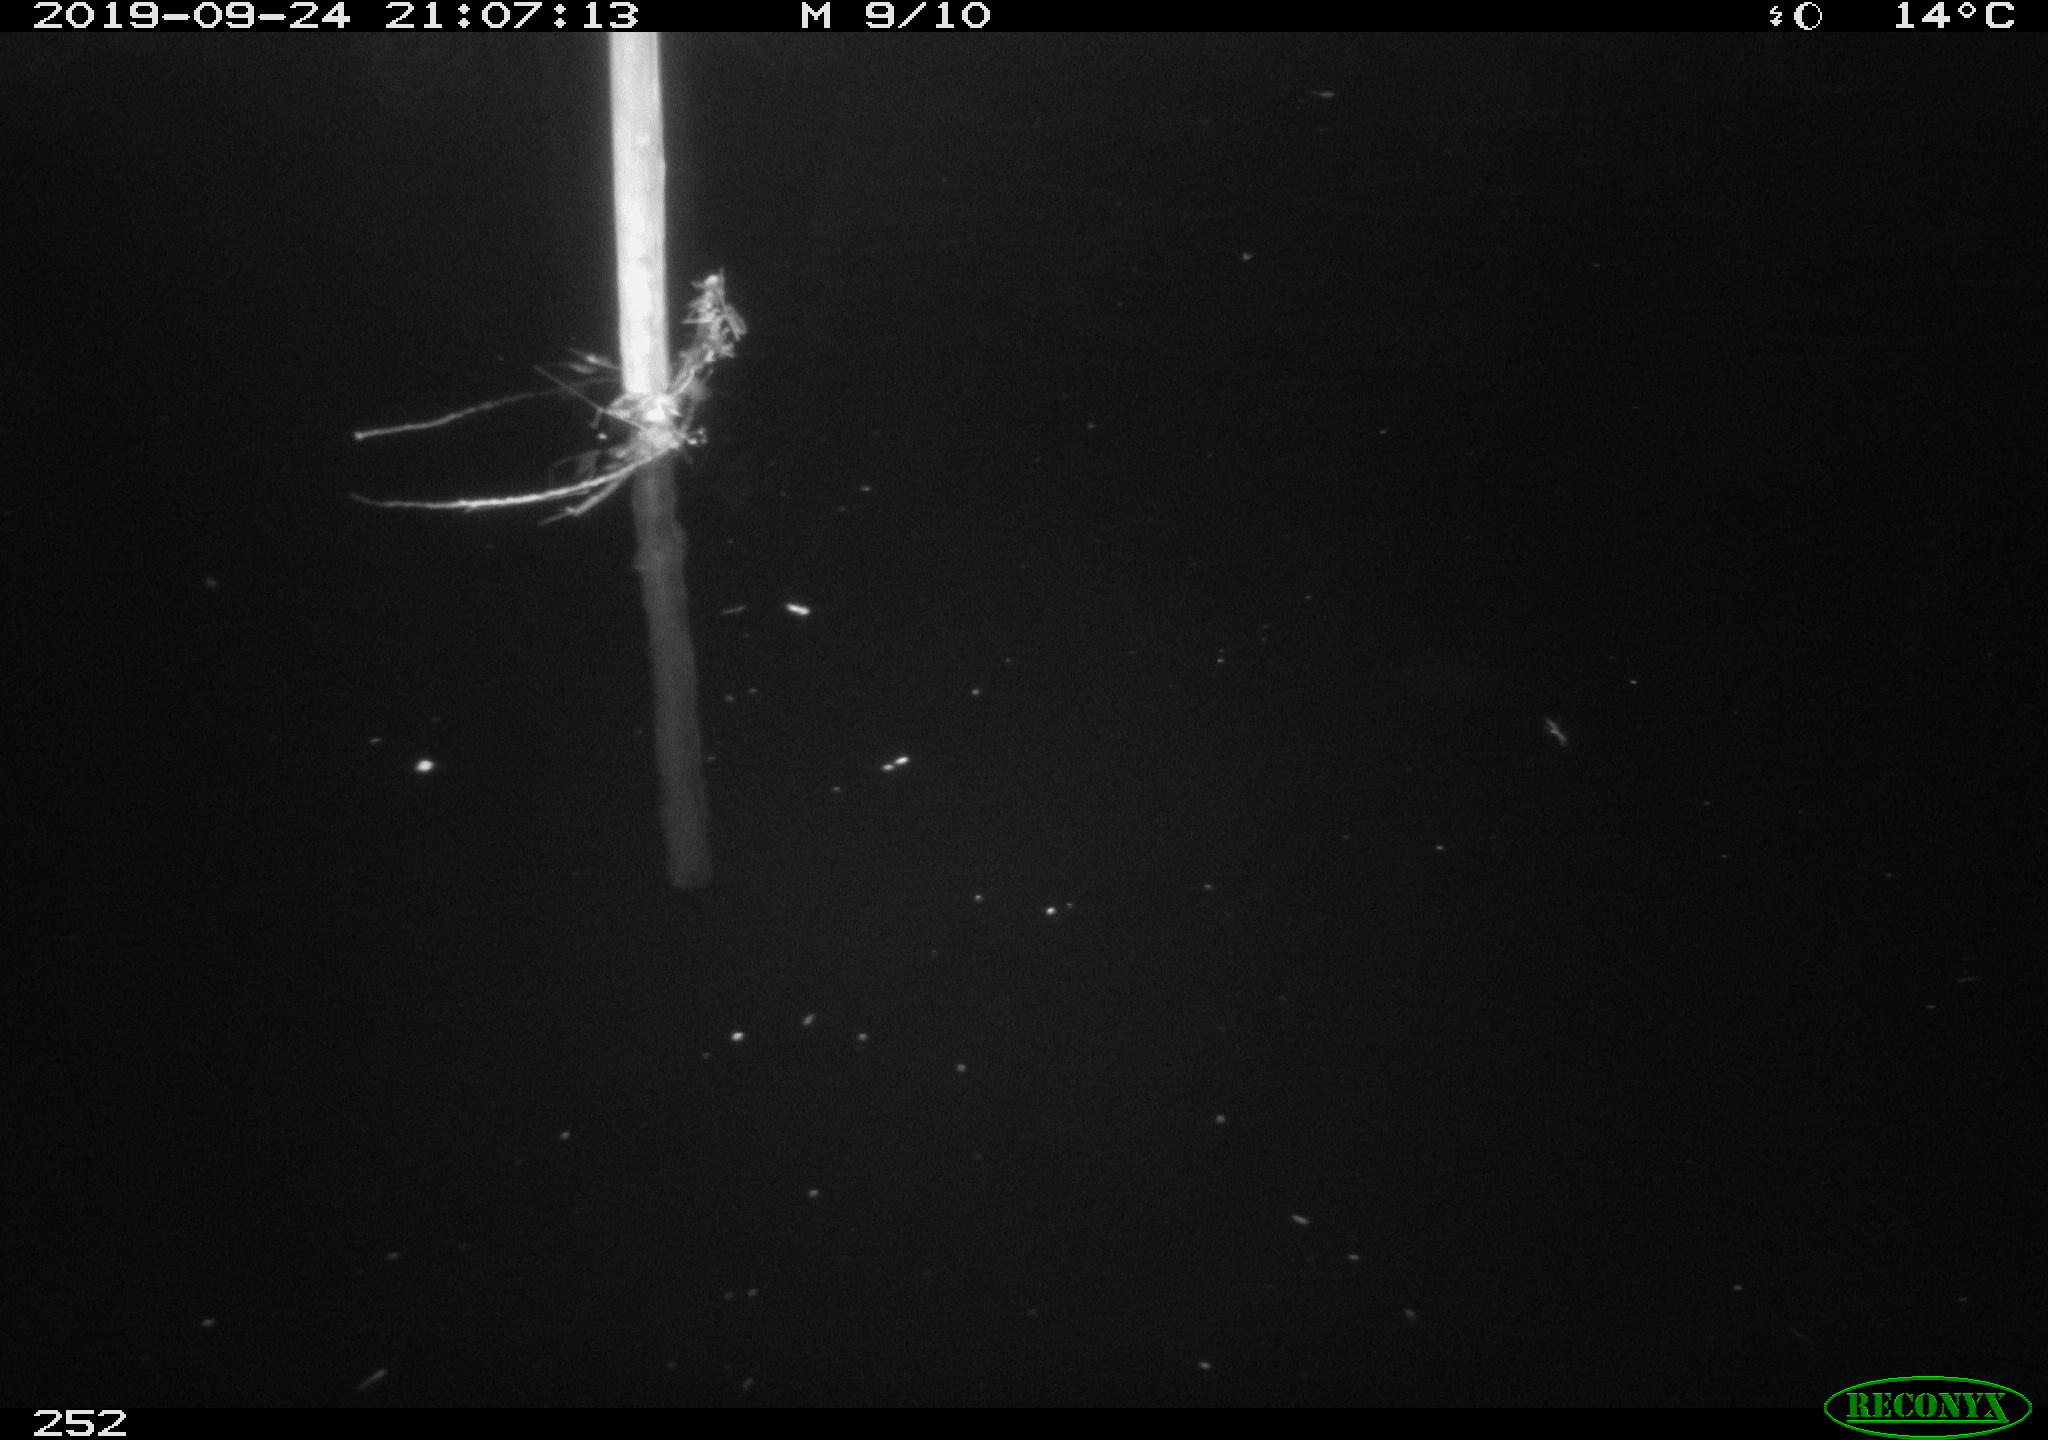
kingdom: Animalia
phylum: Chordata
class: Aves
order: Anseriformes
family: Anatidae
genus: Anas
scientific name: Anas platyrhynchos
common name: Mallard
